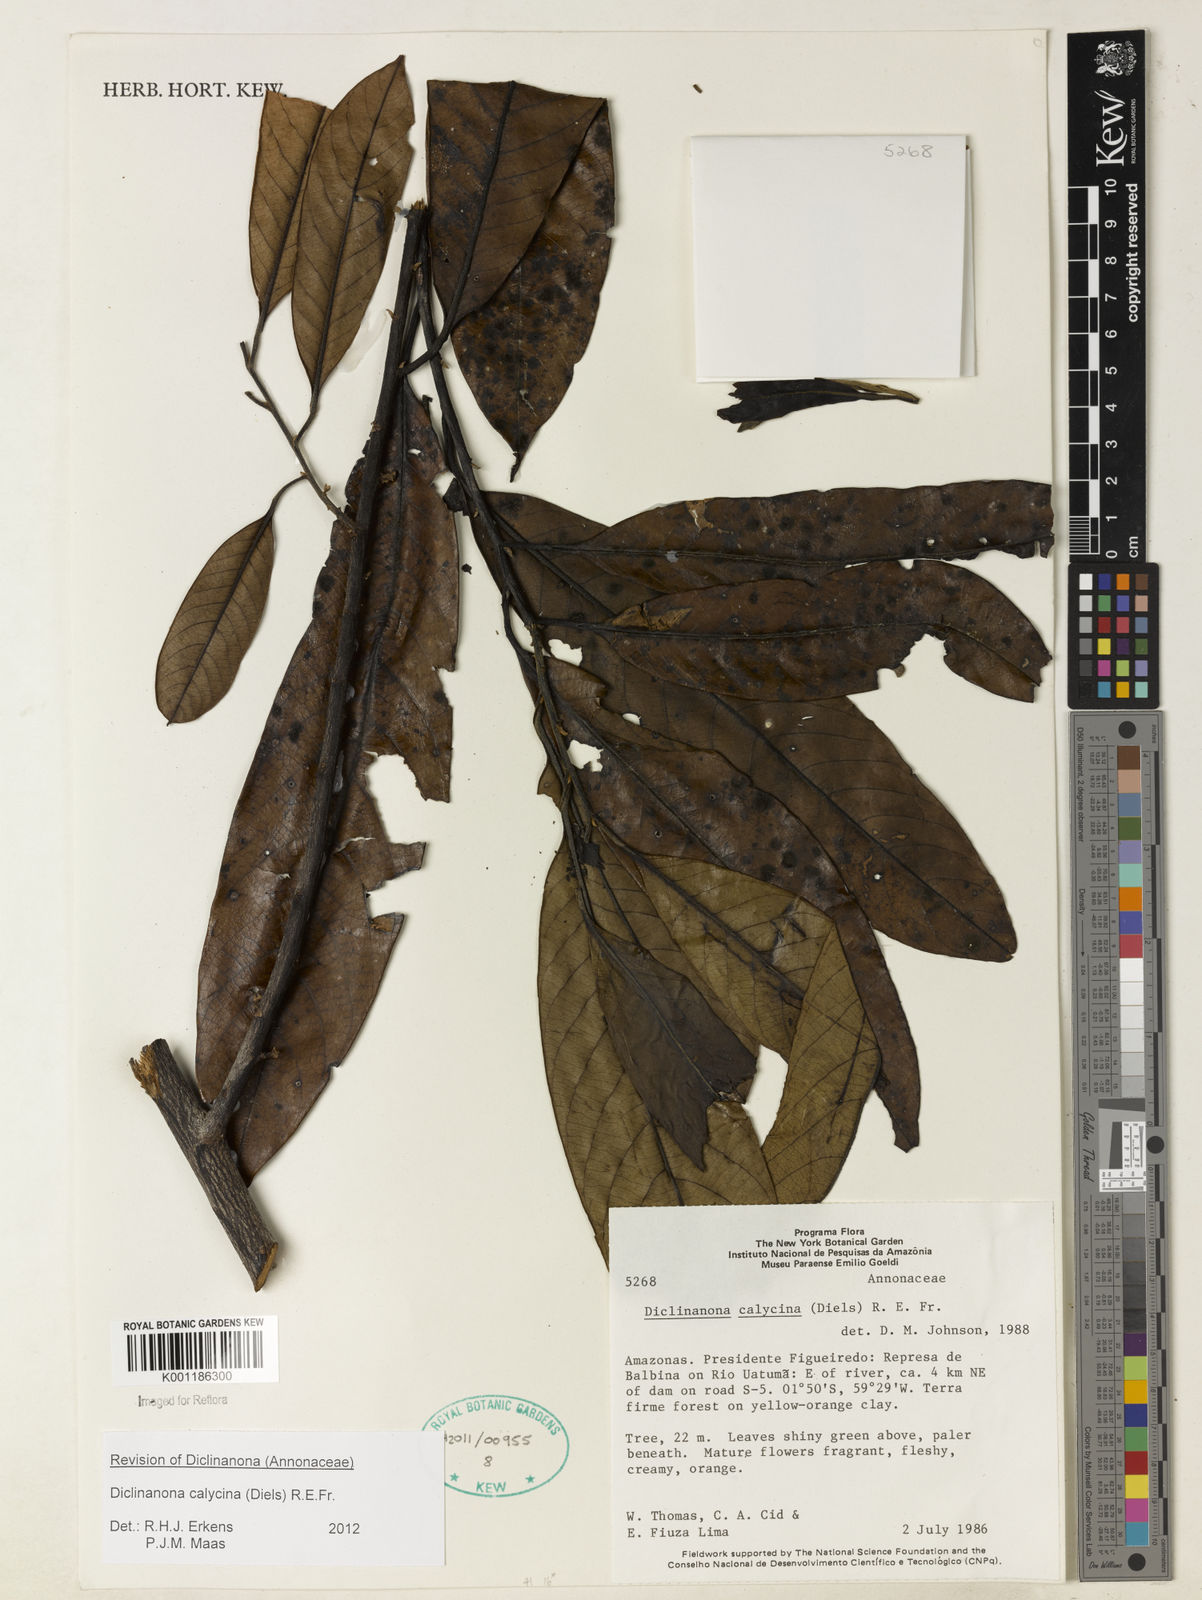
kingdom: Plantae
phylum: Tracheophyta
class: Magnoliopsida
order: Magnoliales
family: Annonaceae
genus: Diclinanona
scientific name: Diclinanona calycina
